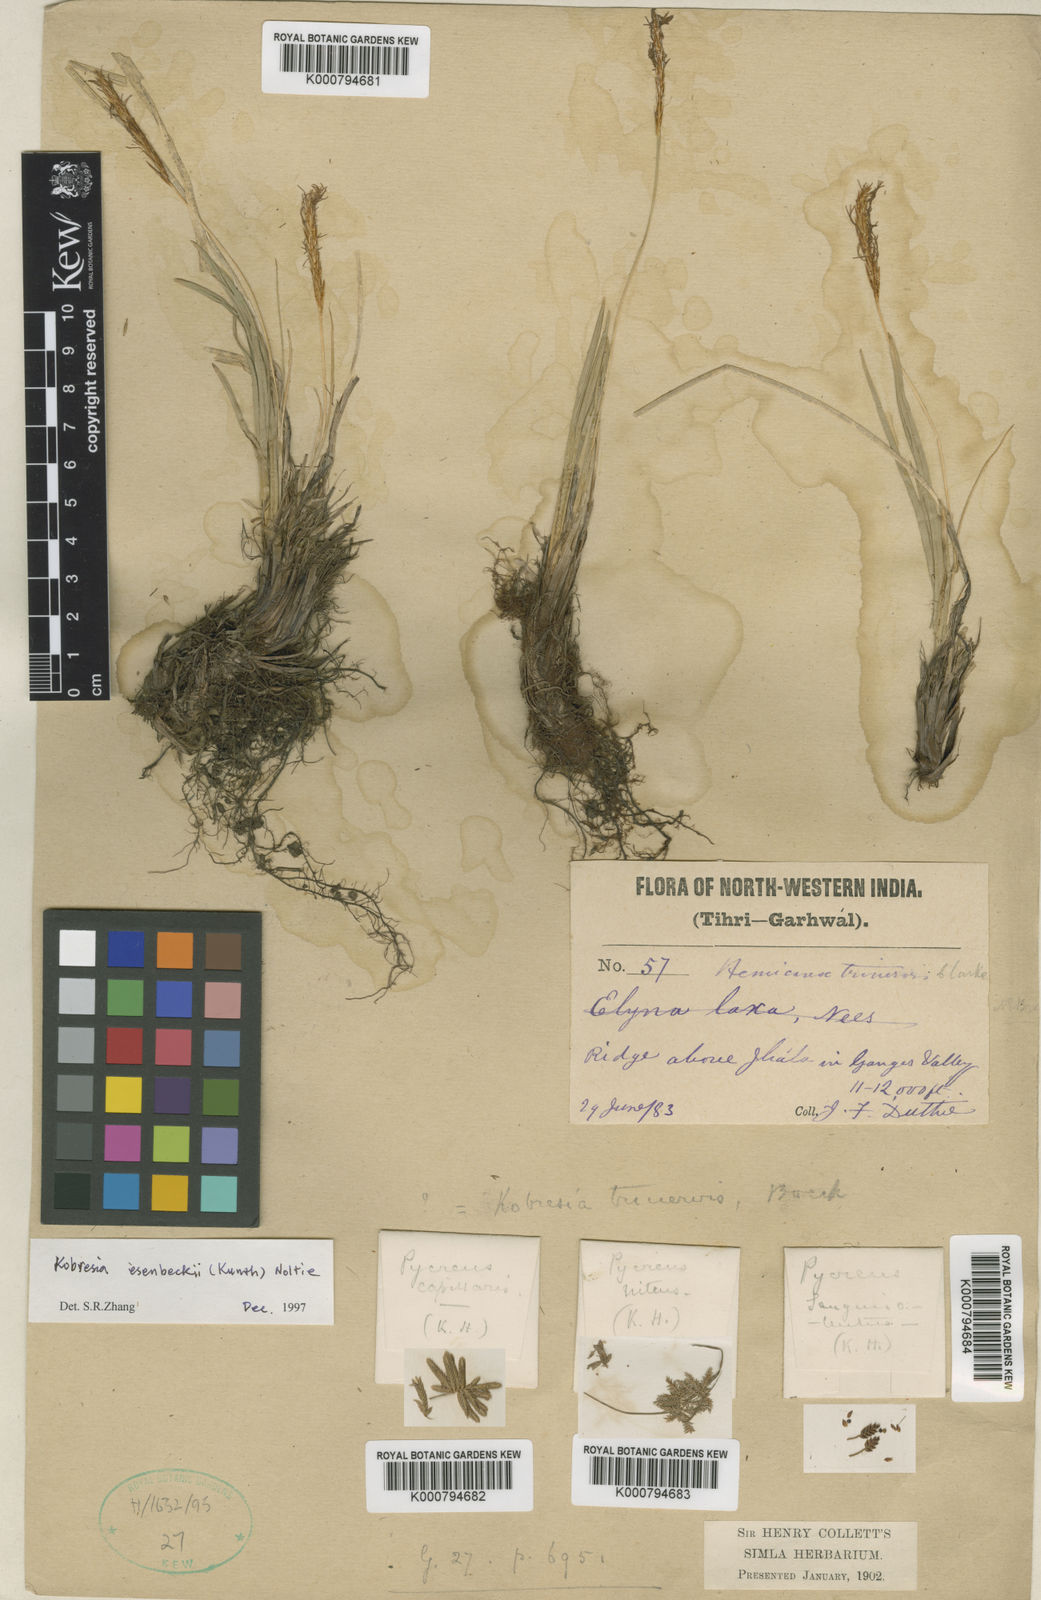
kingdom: Plantae
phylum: Tracheophyta
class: Liliopsida
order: Poales
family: Cyperaceae
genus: Carex
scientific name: Carex esenbeckii
